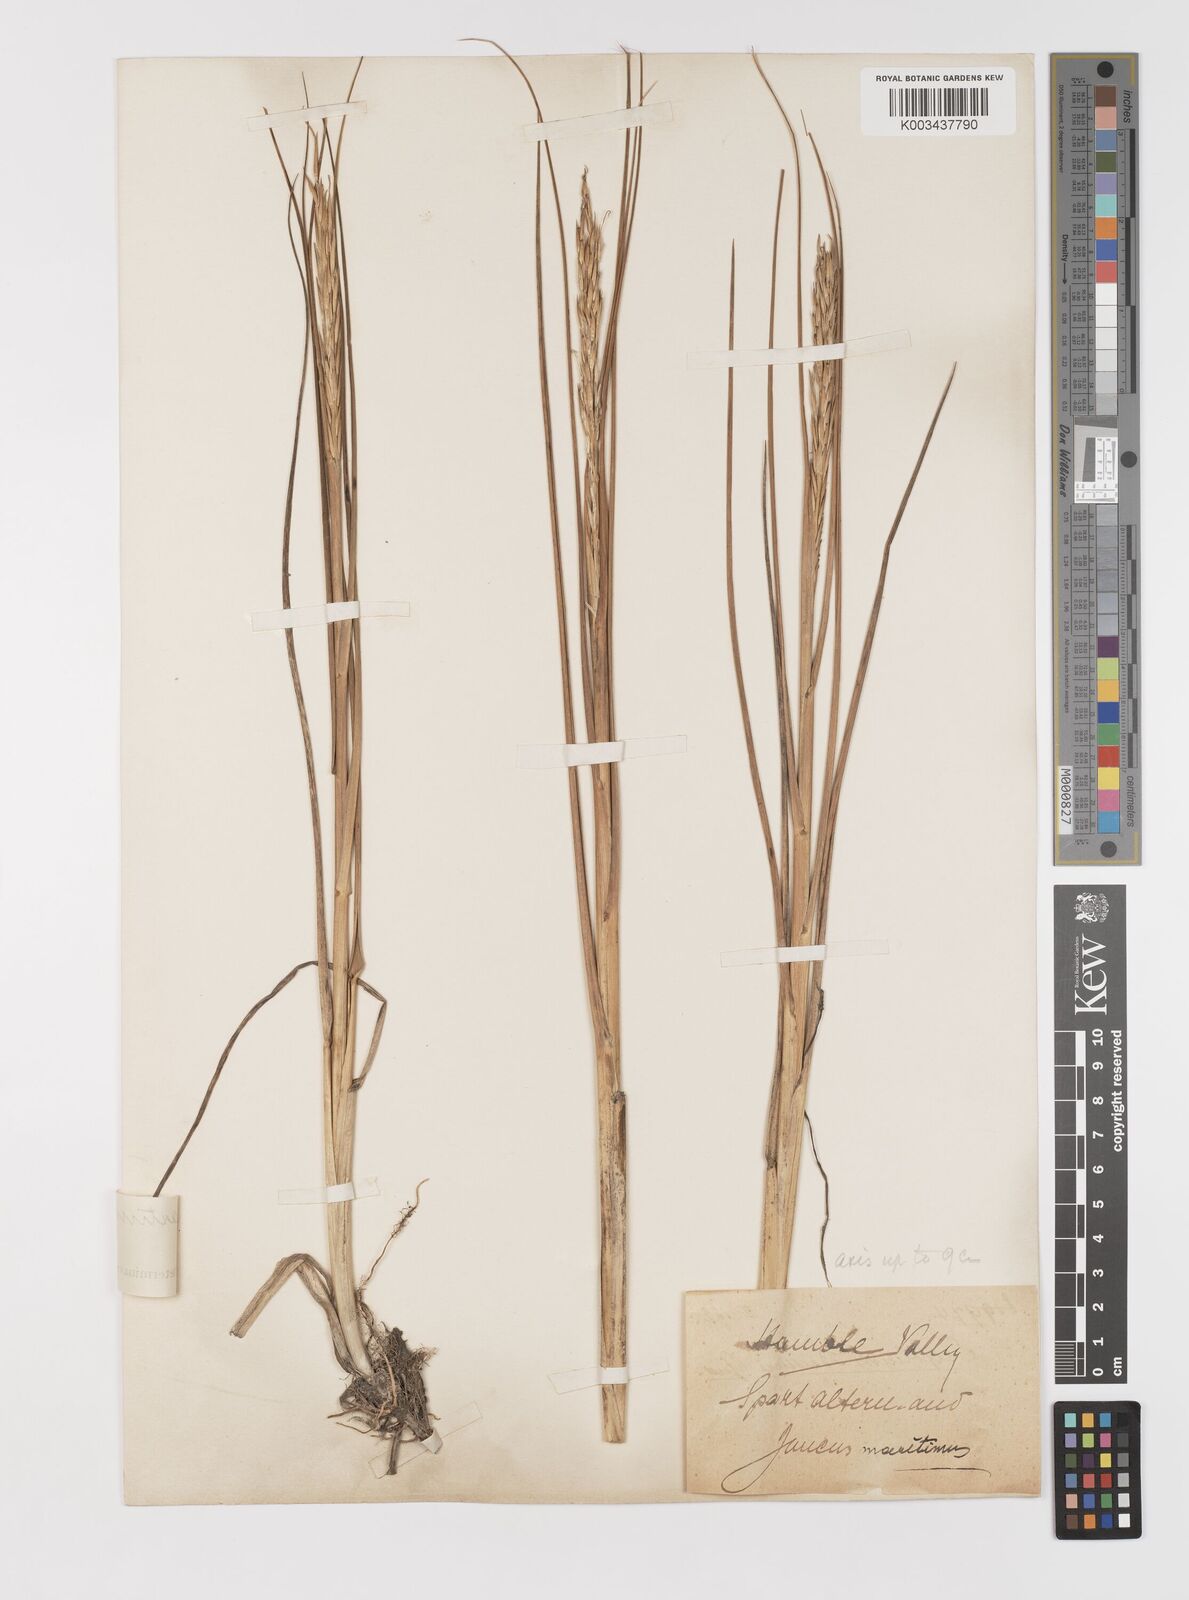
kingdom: Plantae
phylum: Tracheophyta
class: Liliopsida
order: Poales
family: Poaceae
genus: Sporobolus
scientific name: Sporobolus alterniflorus
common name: Atlantic cordgrass
